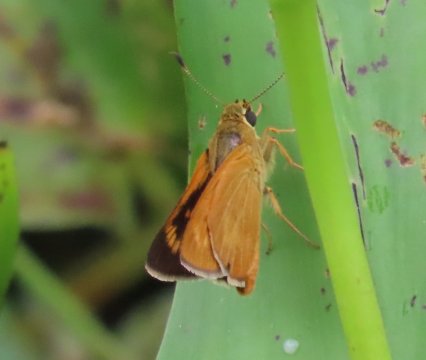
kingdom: Animalia
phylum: Arthropoda
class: Insecta
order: Lepidoptera
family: Hesperiidae
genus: Problema
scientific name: Problema byssus
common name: Byssus Skipper
